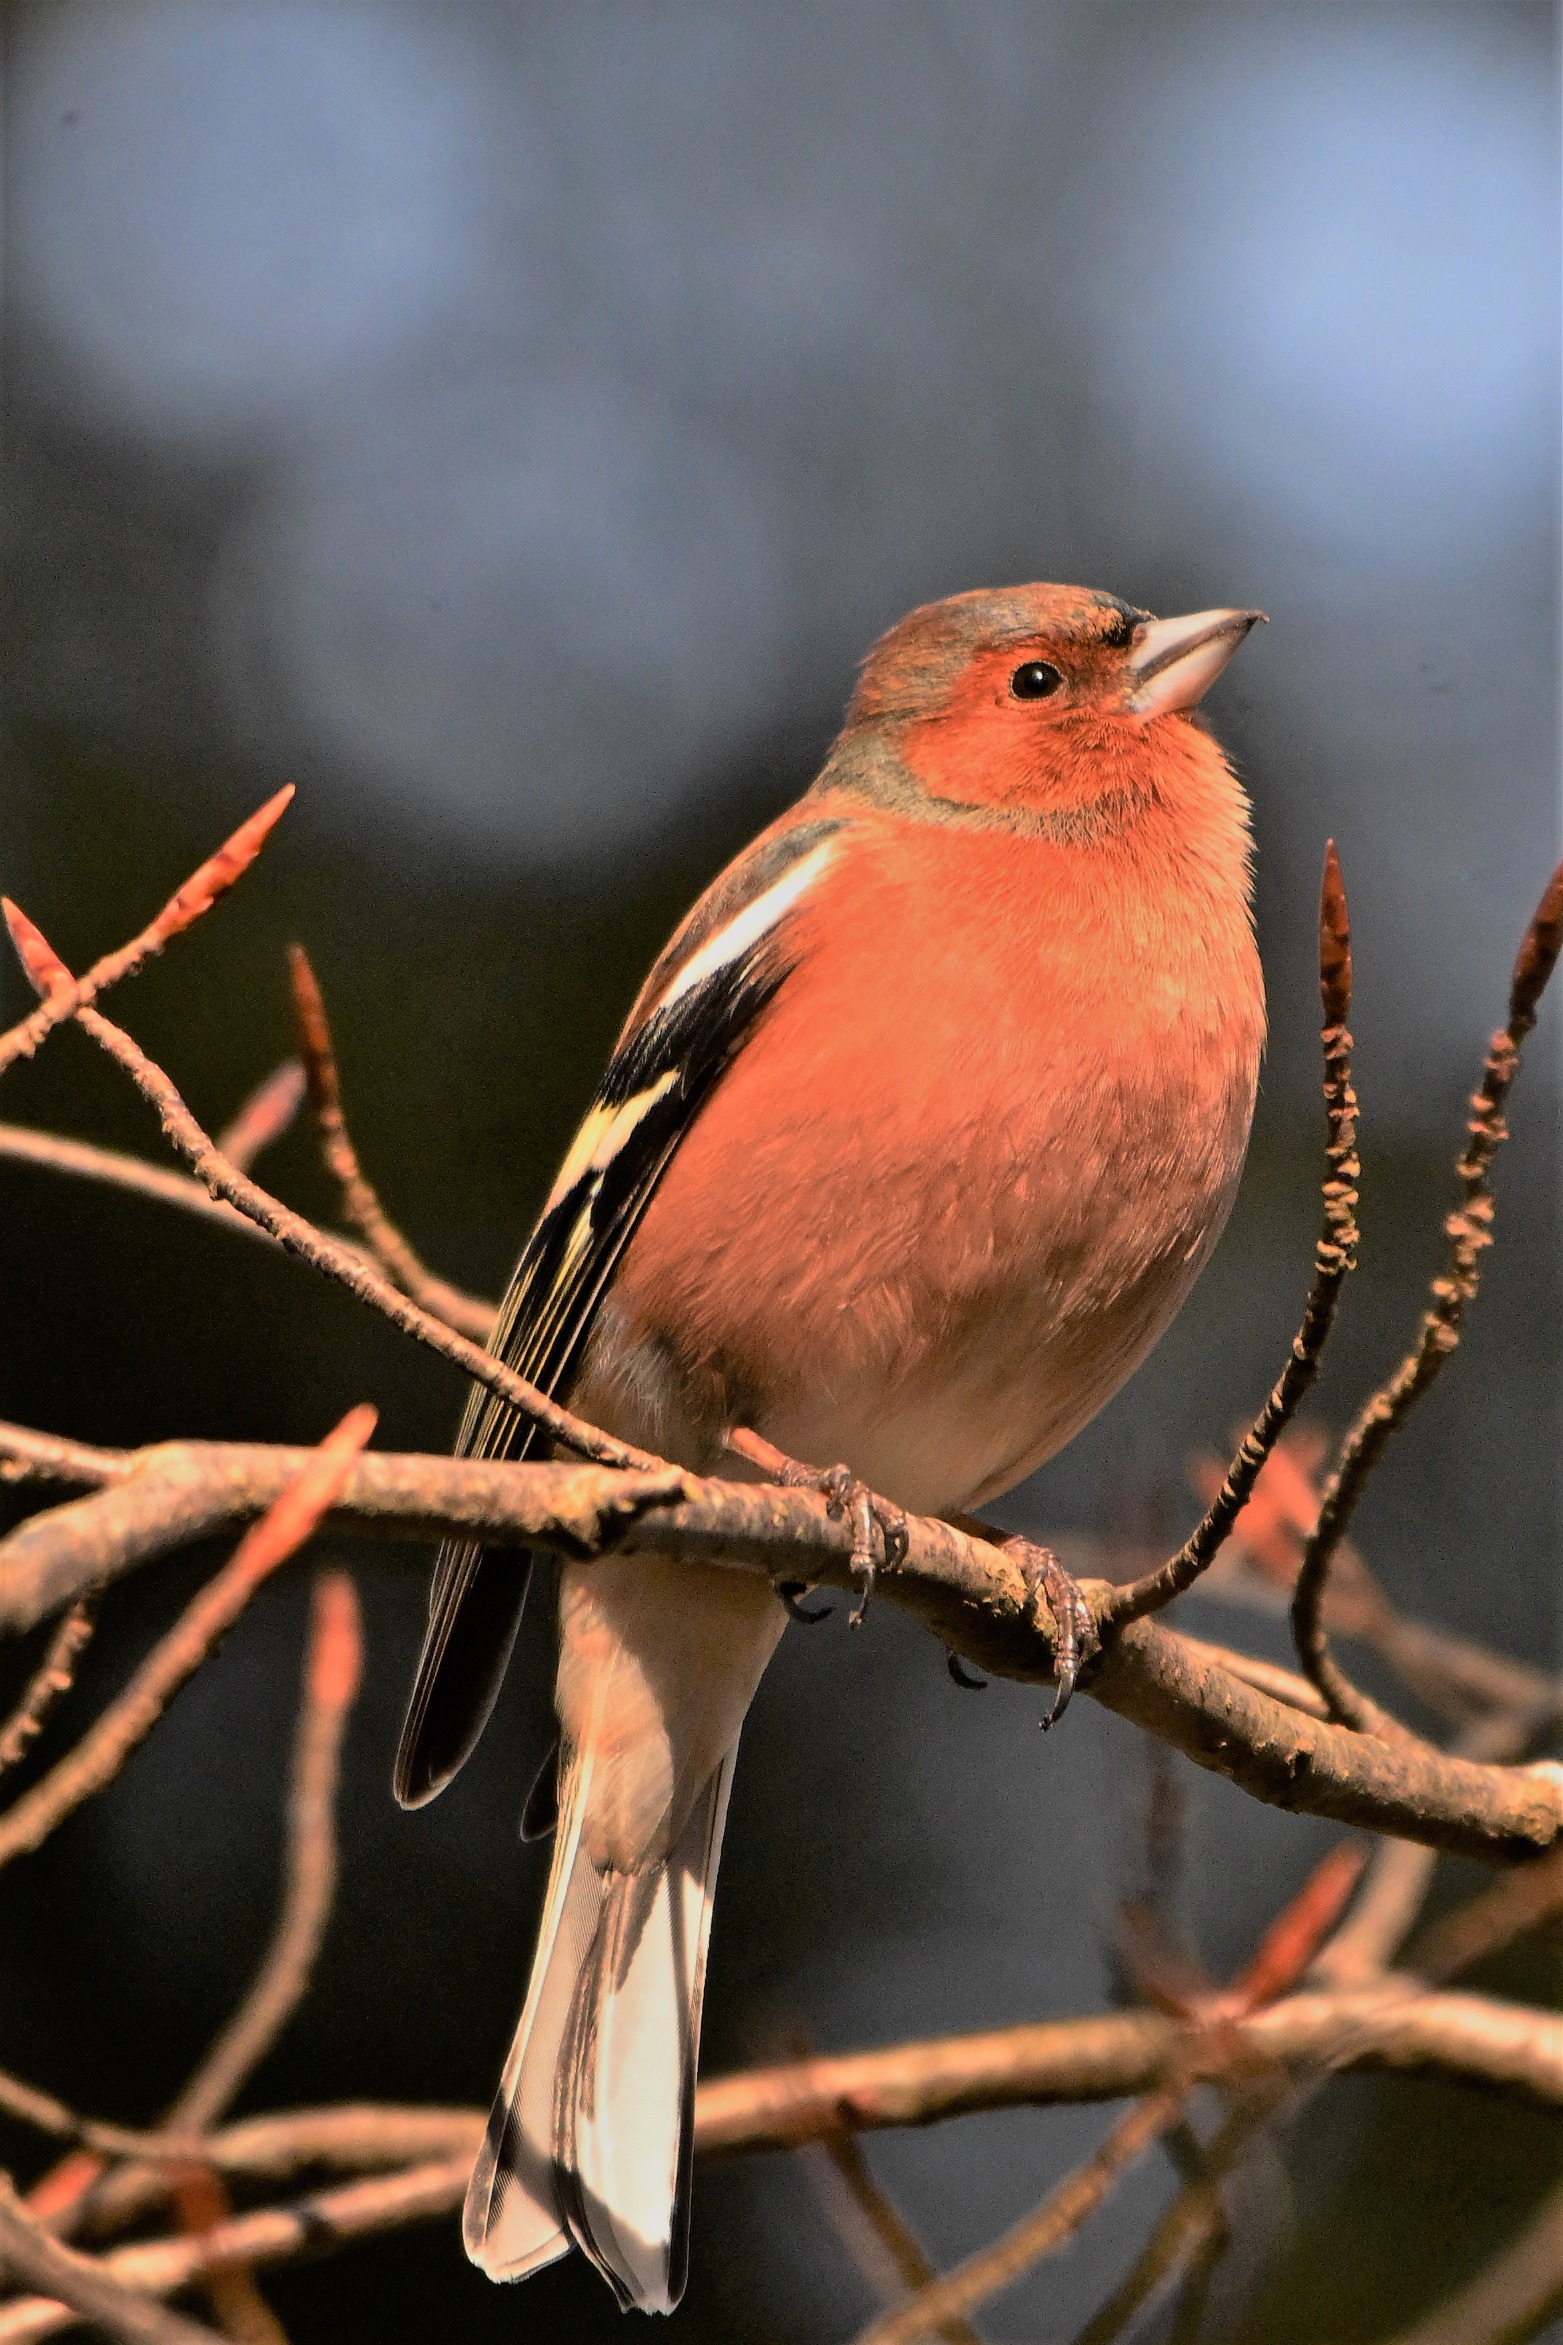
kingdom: Animalia
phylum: Chordata
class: Aves
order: Passeriformes
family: Fringillidae
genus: Fringilla
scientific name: Fringilla coelebs
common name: Bogfinke
